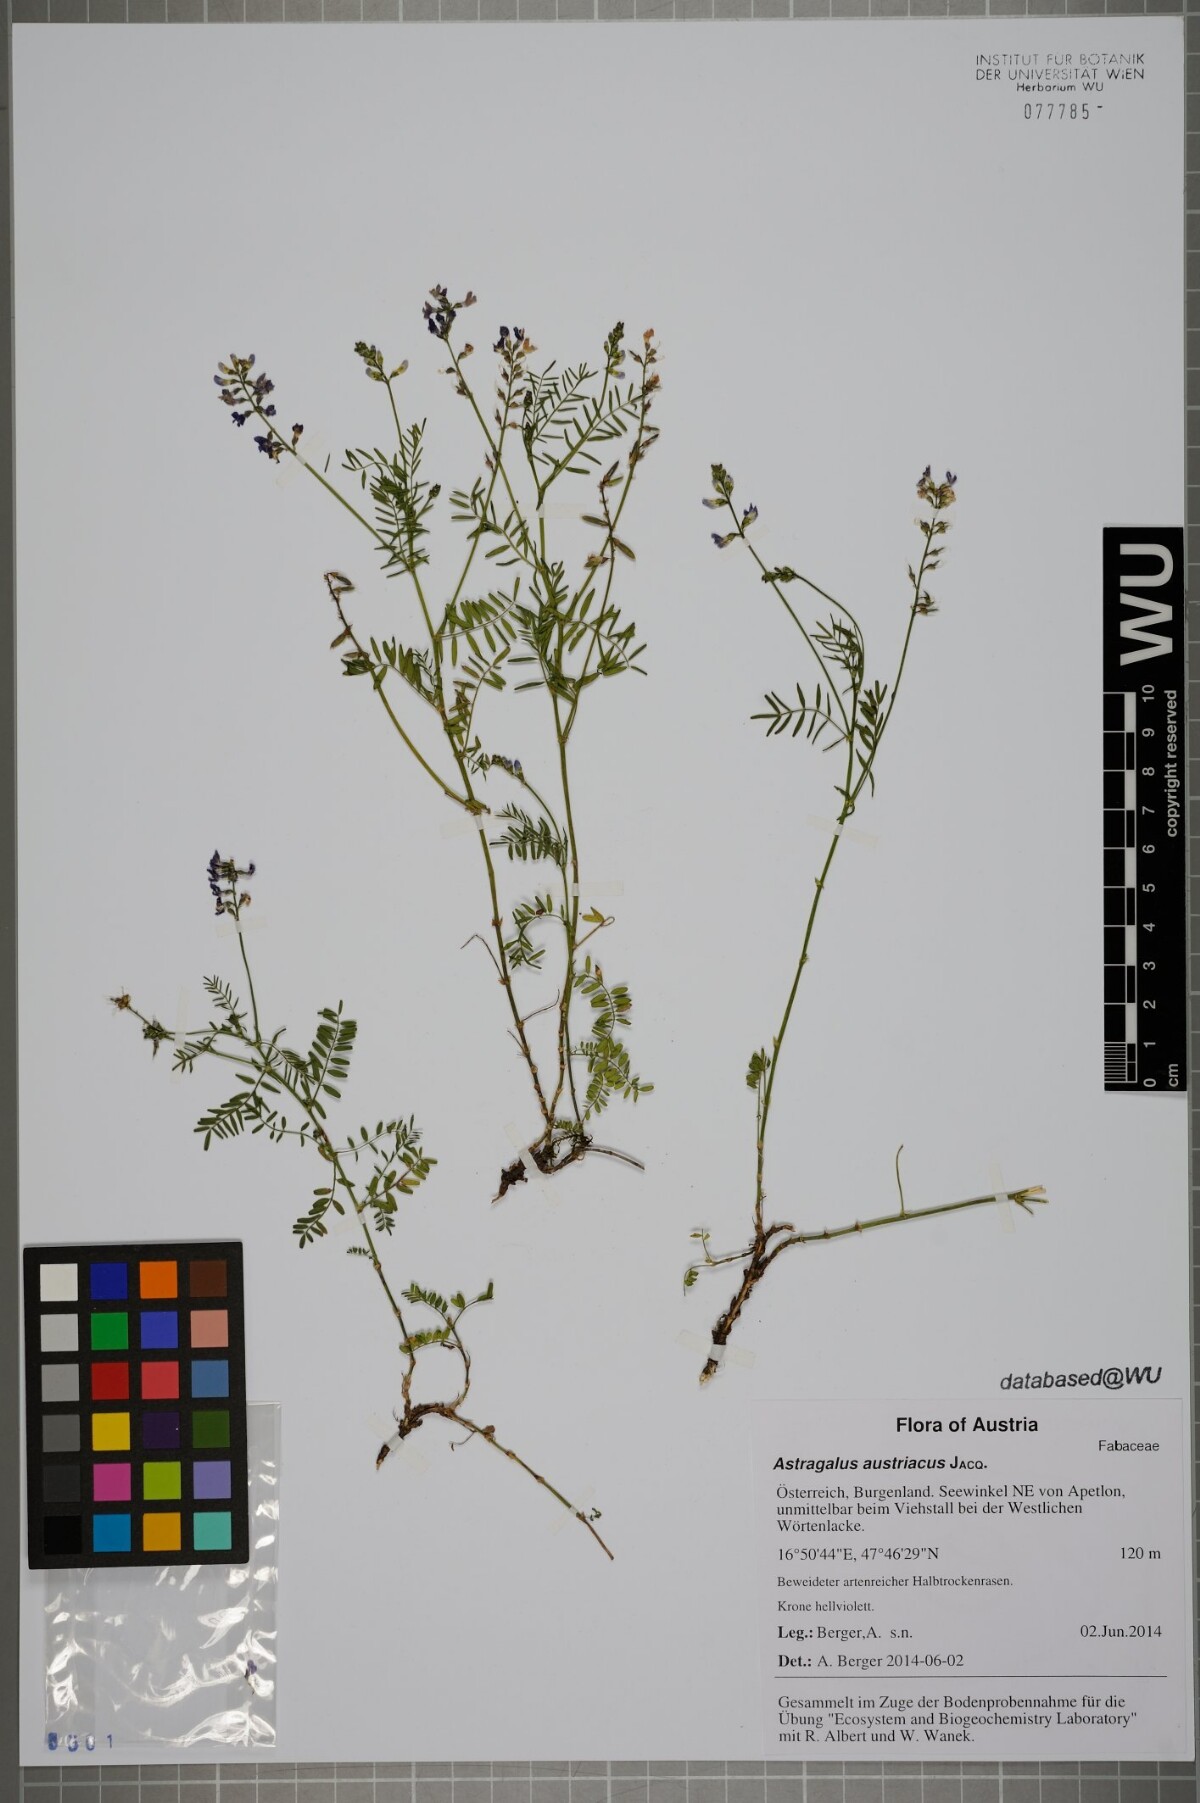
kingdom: Plantae
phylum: Tracheophyta
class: Magnoliopsida
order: Fabales
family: Fabaceae
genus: Astragalus
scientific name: Astragalus austriacus
